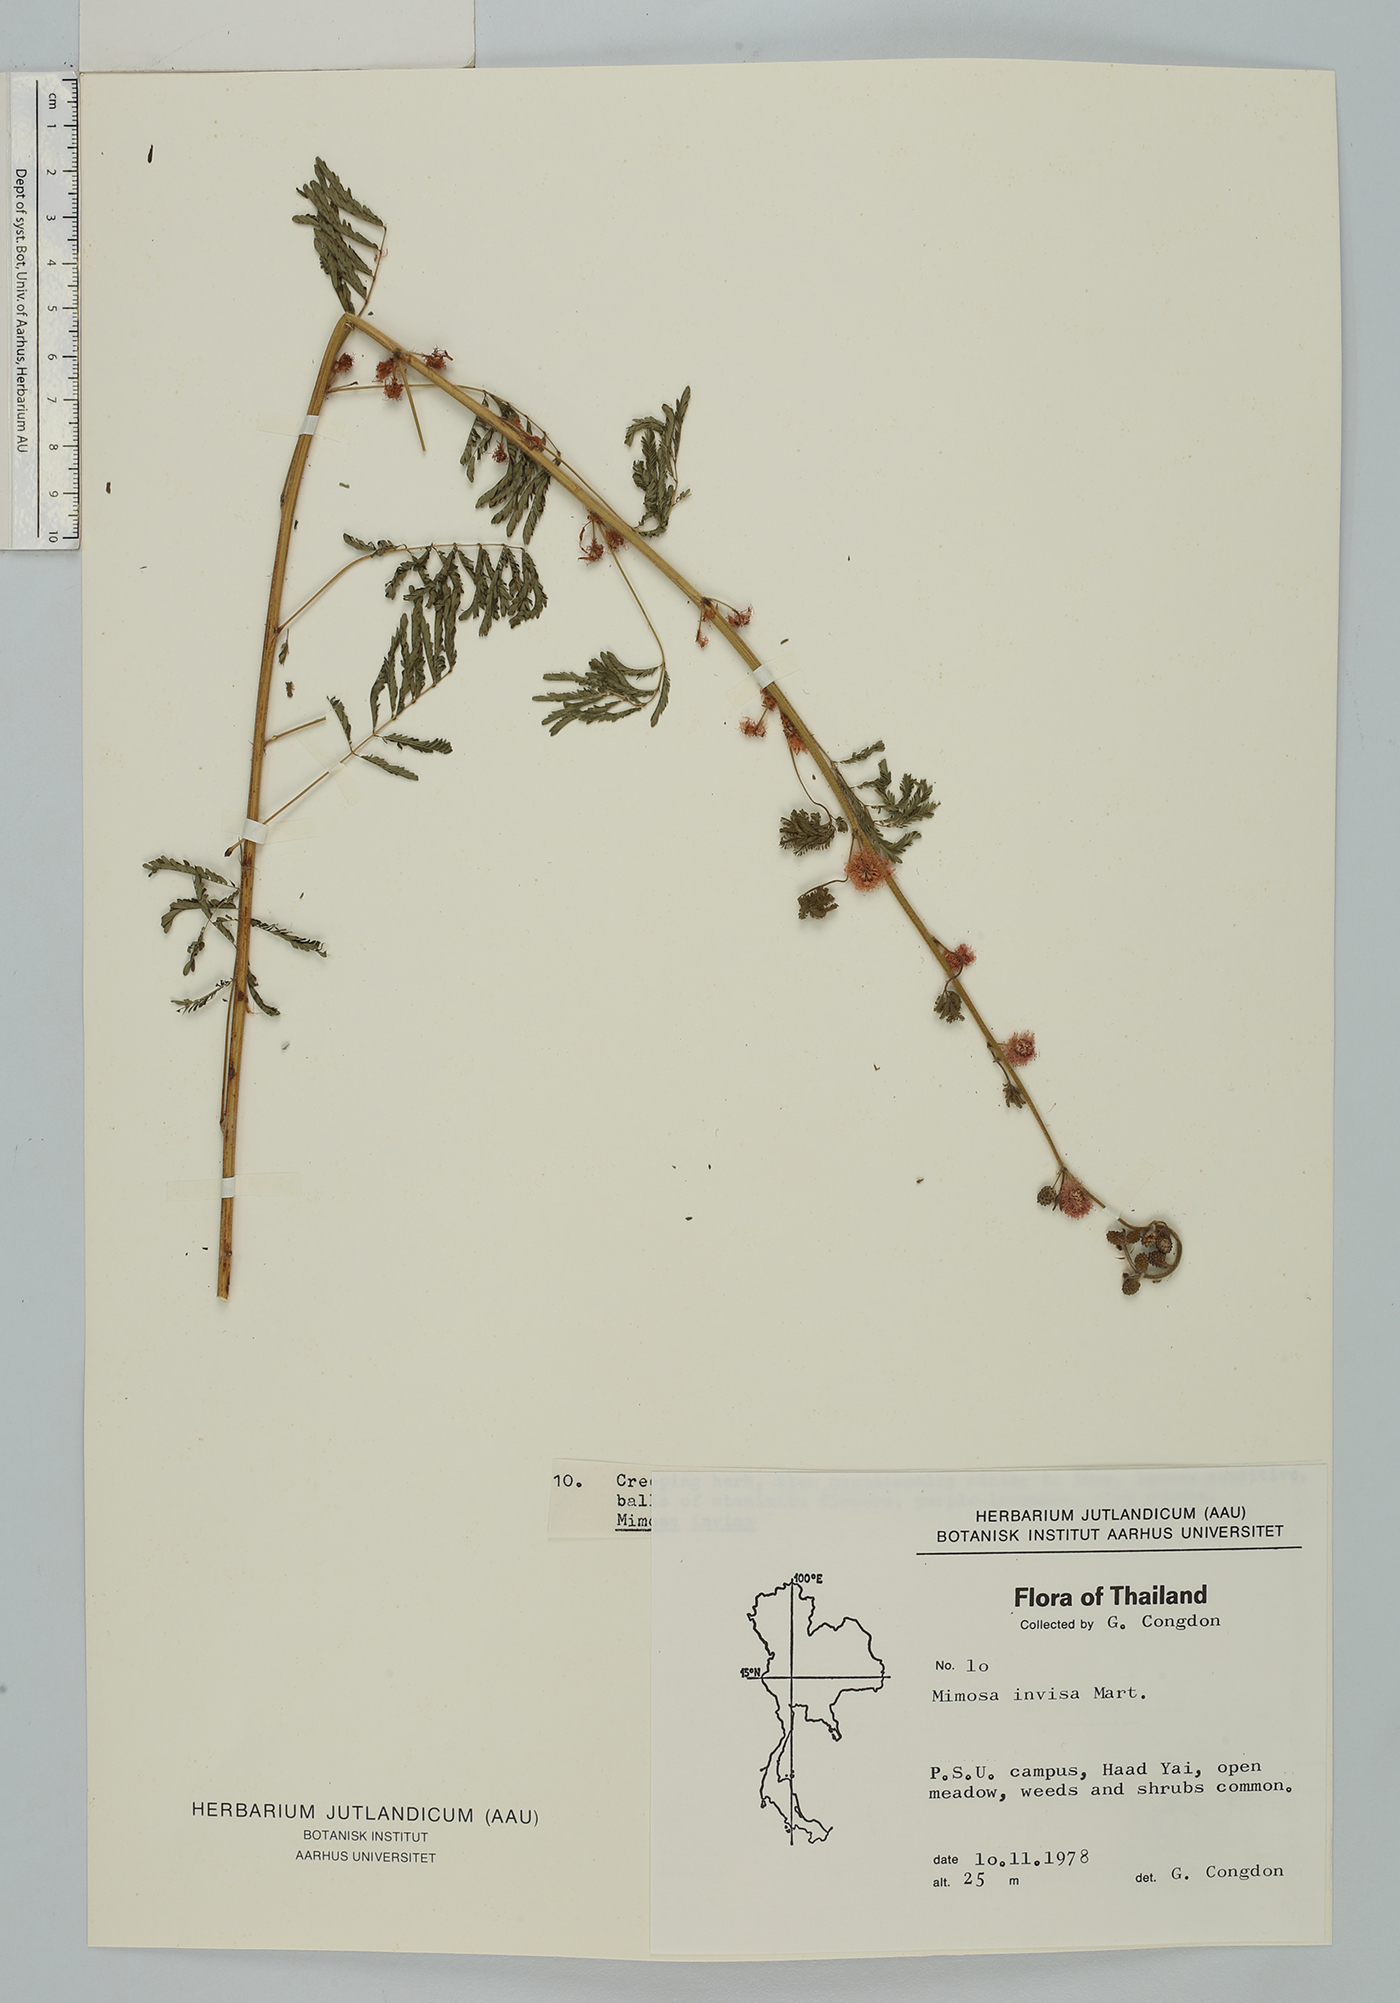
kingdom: Plantae
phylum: Tracheophyta
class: Magnoliopsida
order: Fabales
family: Fabaceae
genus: Mimosa
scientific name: Mimosa diplotricha
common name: Giant sensitive-plant
